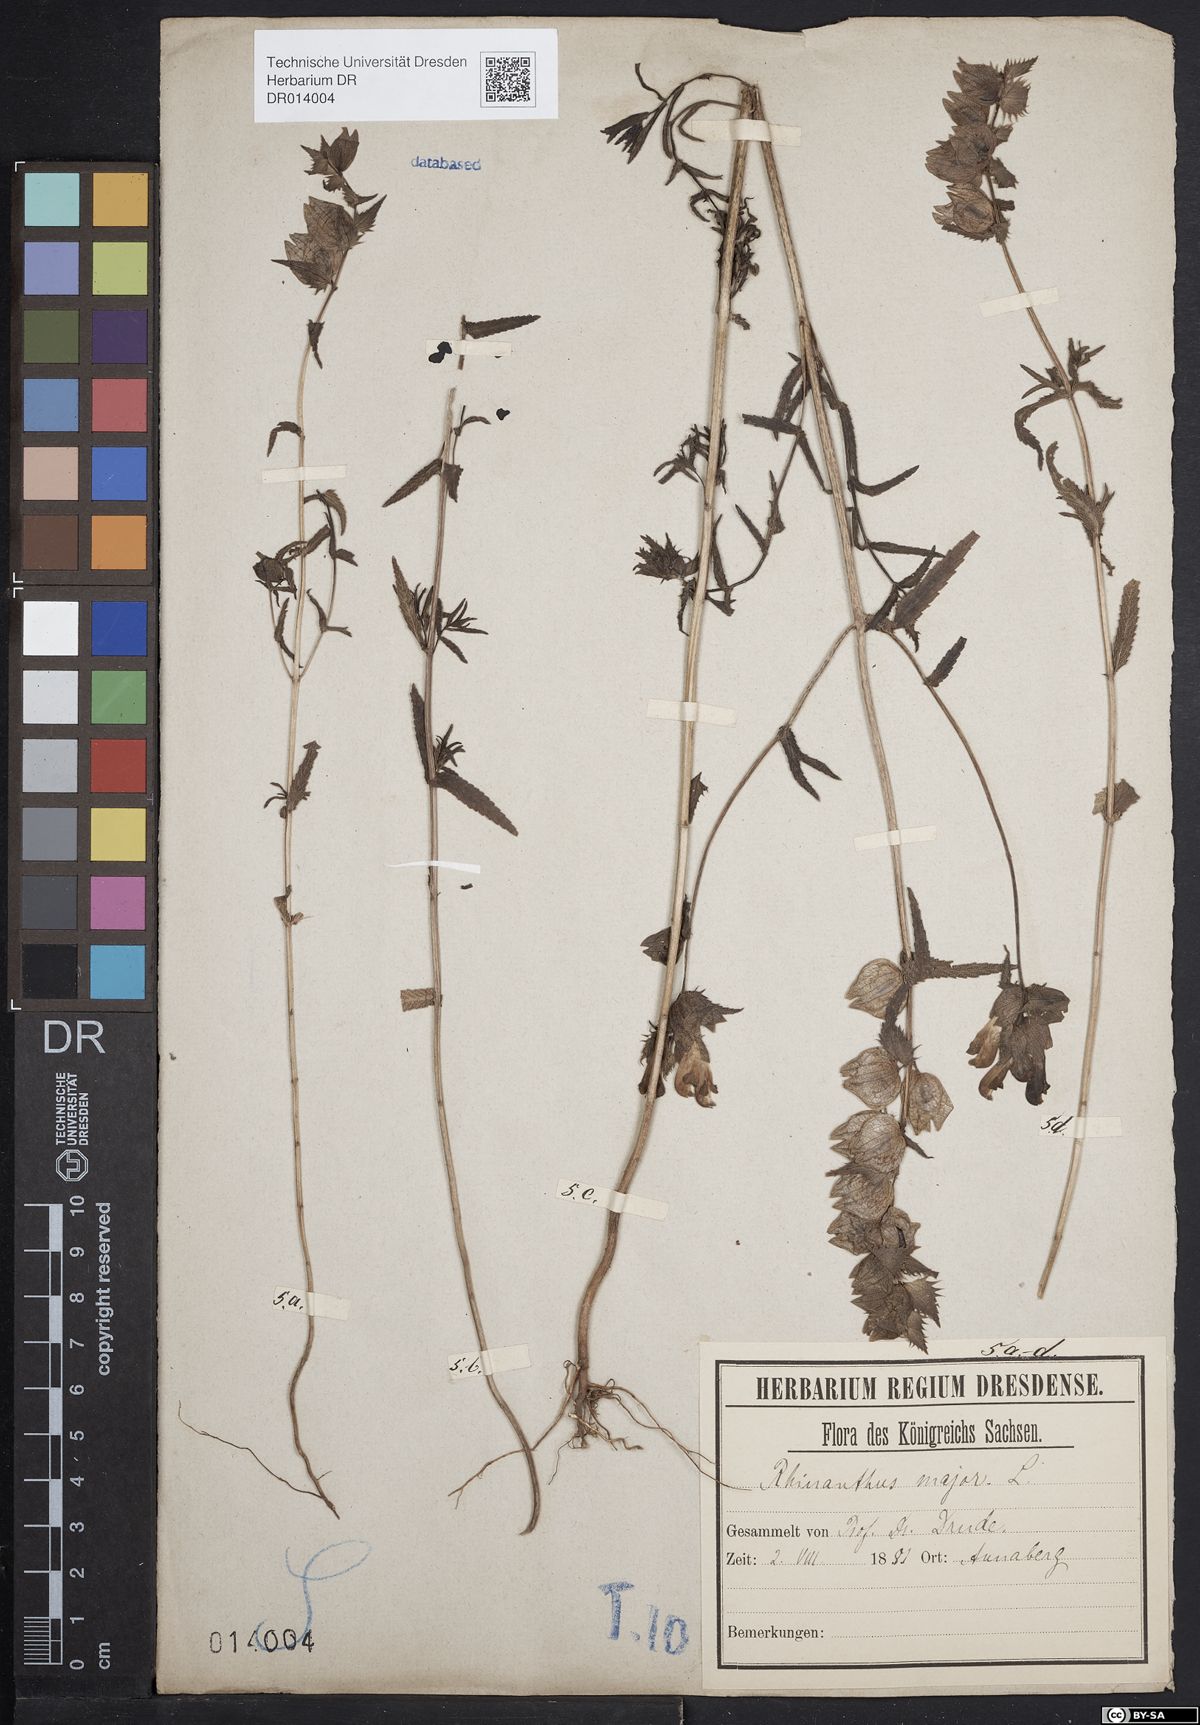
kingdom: Plantae
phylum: Tracheophyta
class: Magnoliopsida
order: Lamiales
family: Orobanchaceae
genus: Rhinanthus
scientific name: Rhinanthus serotinus
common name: Late-flowering yellow rattle
